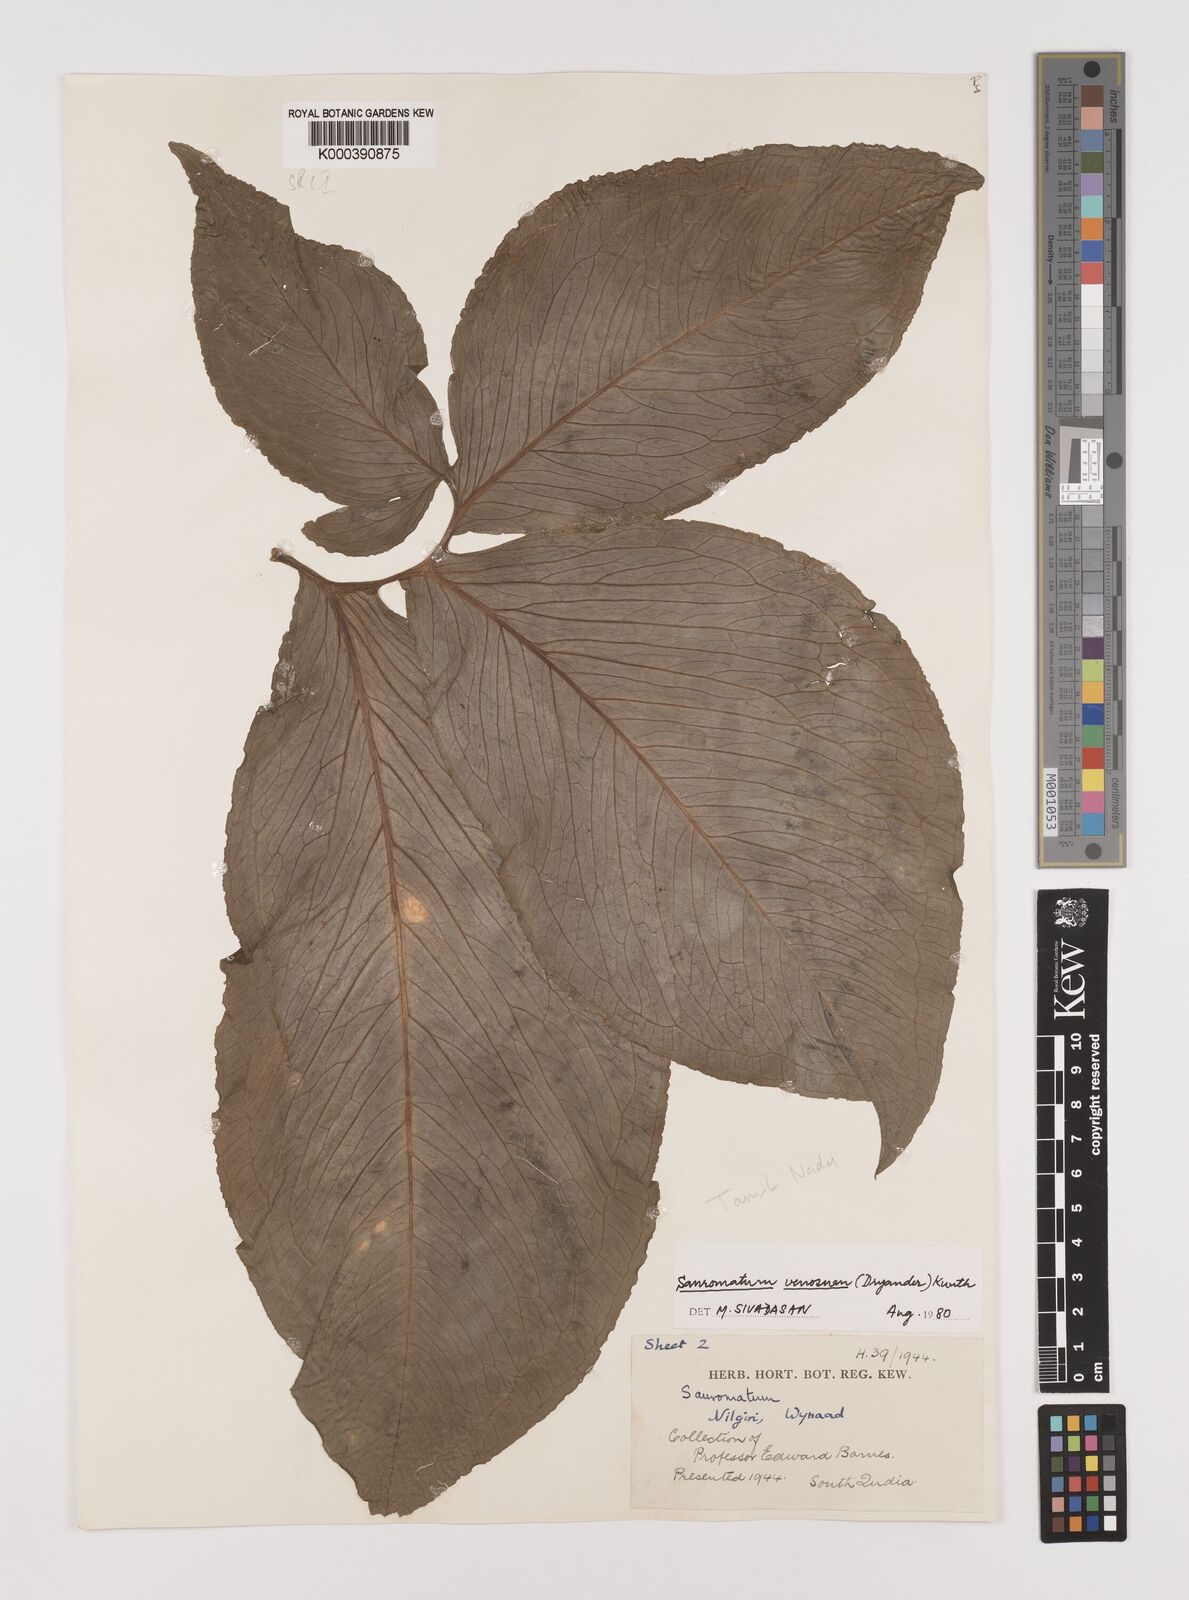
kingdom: Plantae
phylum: Tracheophyta
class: Liliopsida
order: Alismatales
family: Araceae
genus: Sauromatum
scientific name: Sauromatum venosum
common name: Voodoo lily
